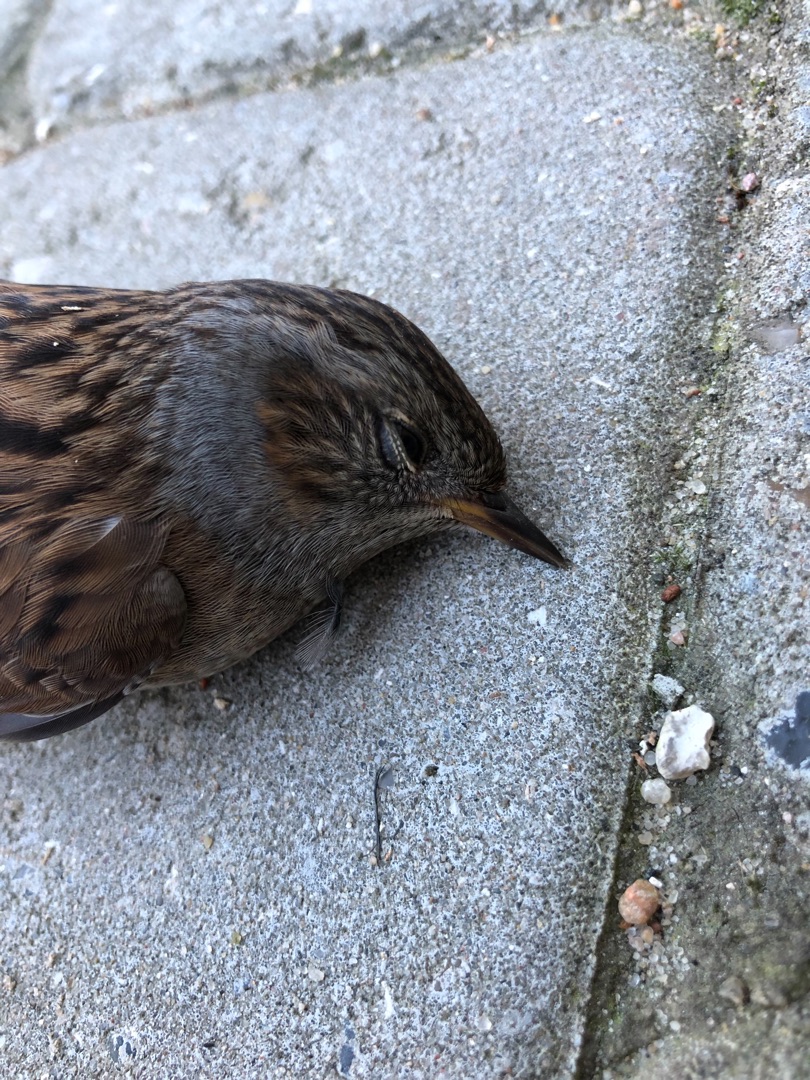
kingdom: Animalia
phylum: Chordata
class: Aves
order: Passeriformes
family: Prunellidae
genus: Prunella
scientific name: Prunella modularis
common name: Jernspurv
